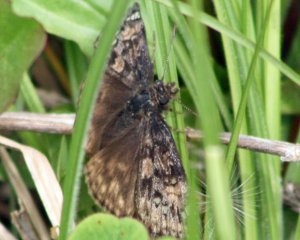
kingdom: Animalia
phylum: Arthropoda
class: Insecta
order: Lepidoptera
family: Hesperiidae
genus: Gesta
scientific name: Gesta
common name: Juvenal's Duskywing
